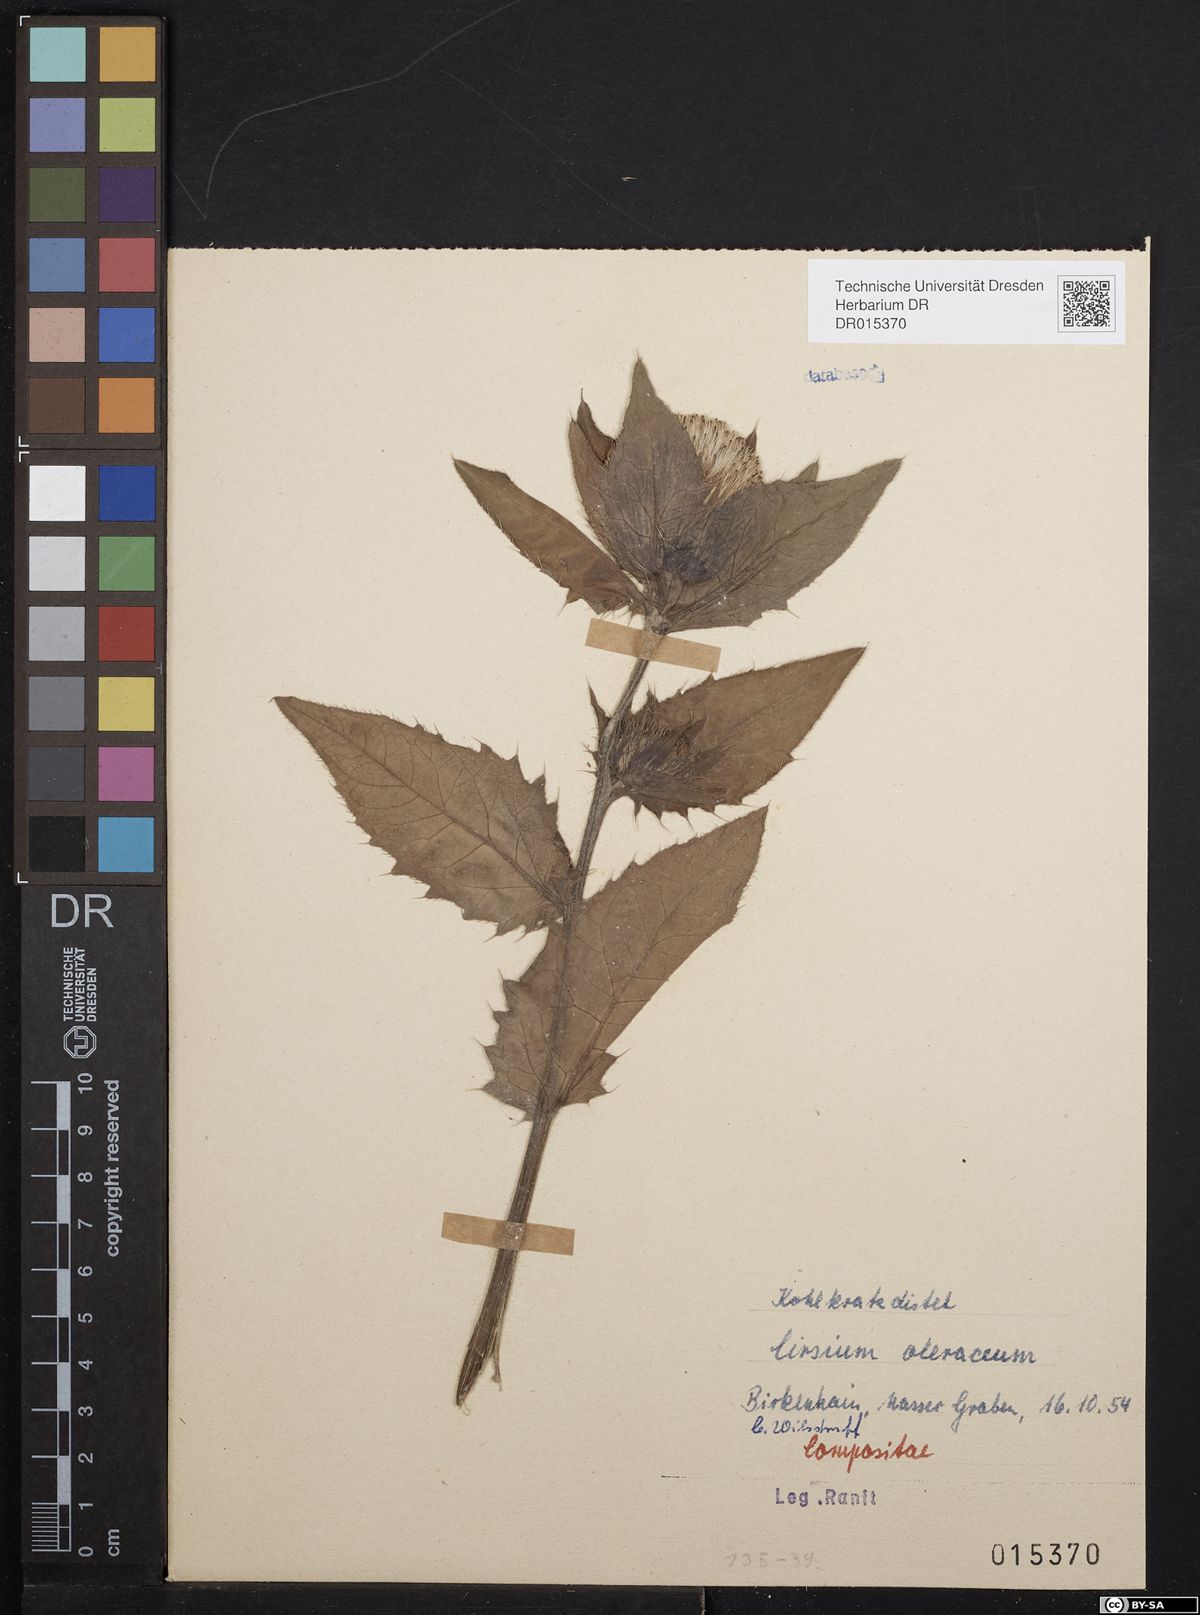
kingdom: Plantae
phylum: Tracheophyta
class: Magnoliopsida
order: Asterales
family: Asteraceae
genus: Cirsium
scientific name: Cirsium oleraceum
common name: Cabbage thistle
